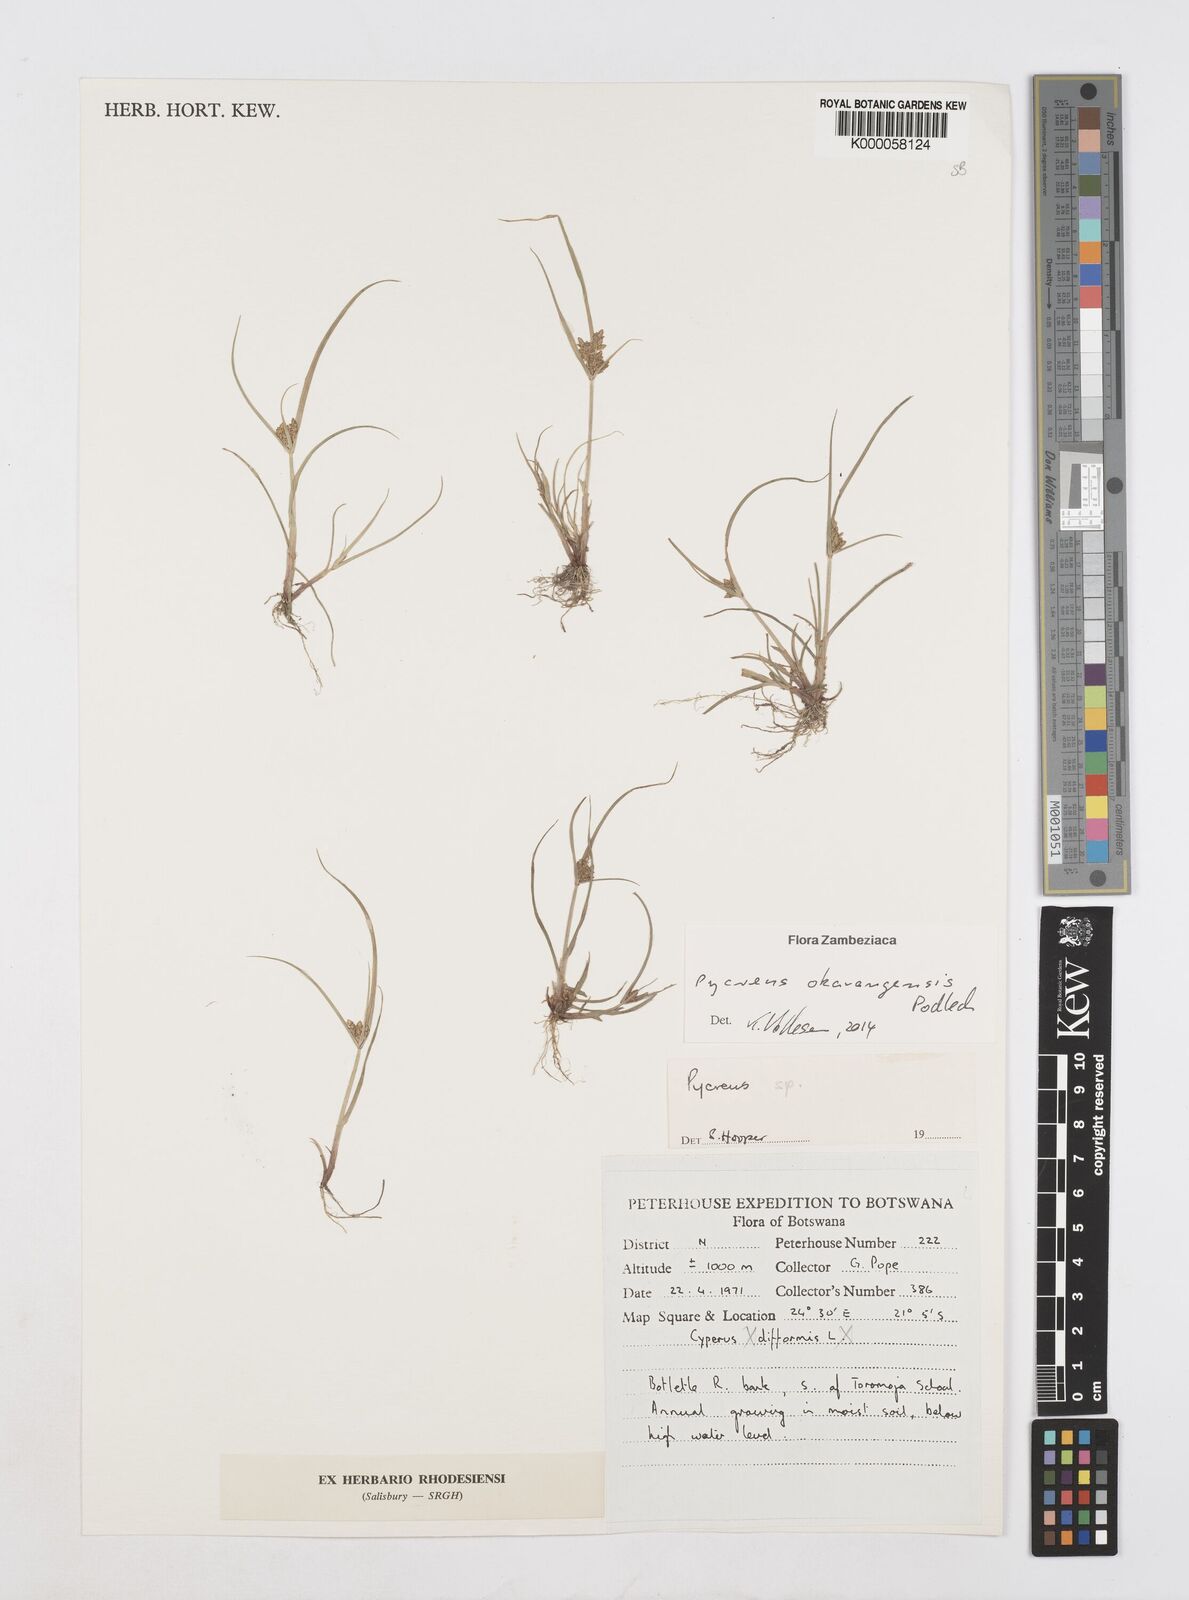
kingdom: Plantae
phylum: Tracheophyta
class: Liliopsida
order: Poales
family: Cyperaceae
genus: Cyperus
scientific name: Cyperus okavangensis
